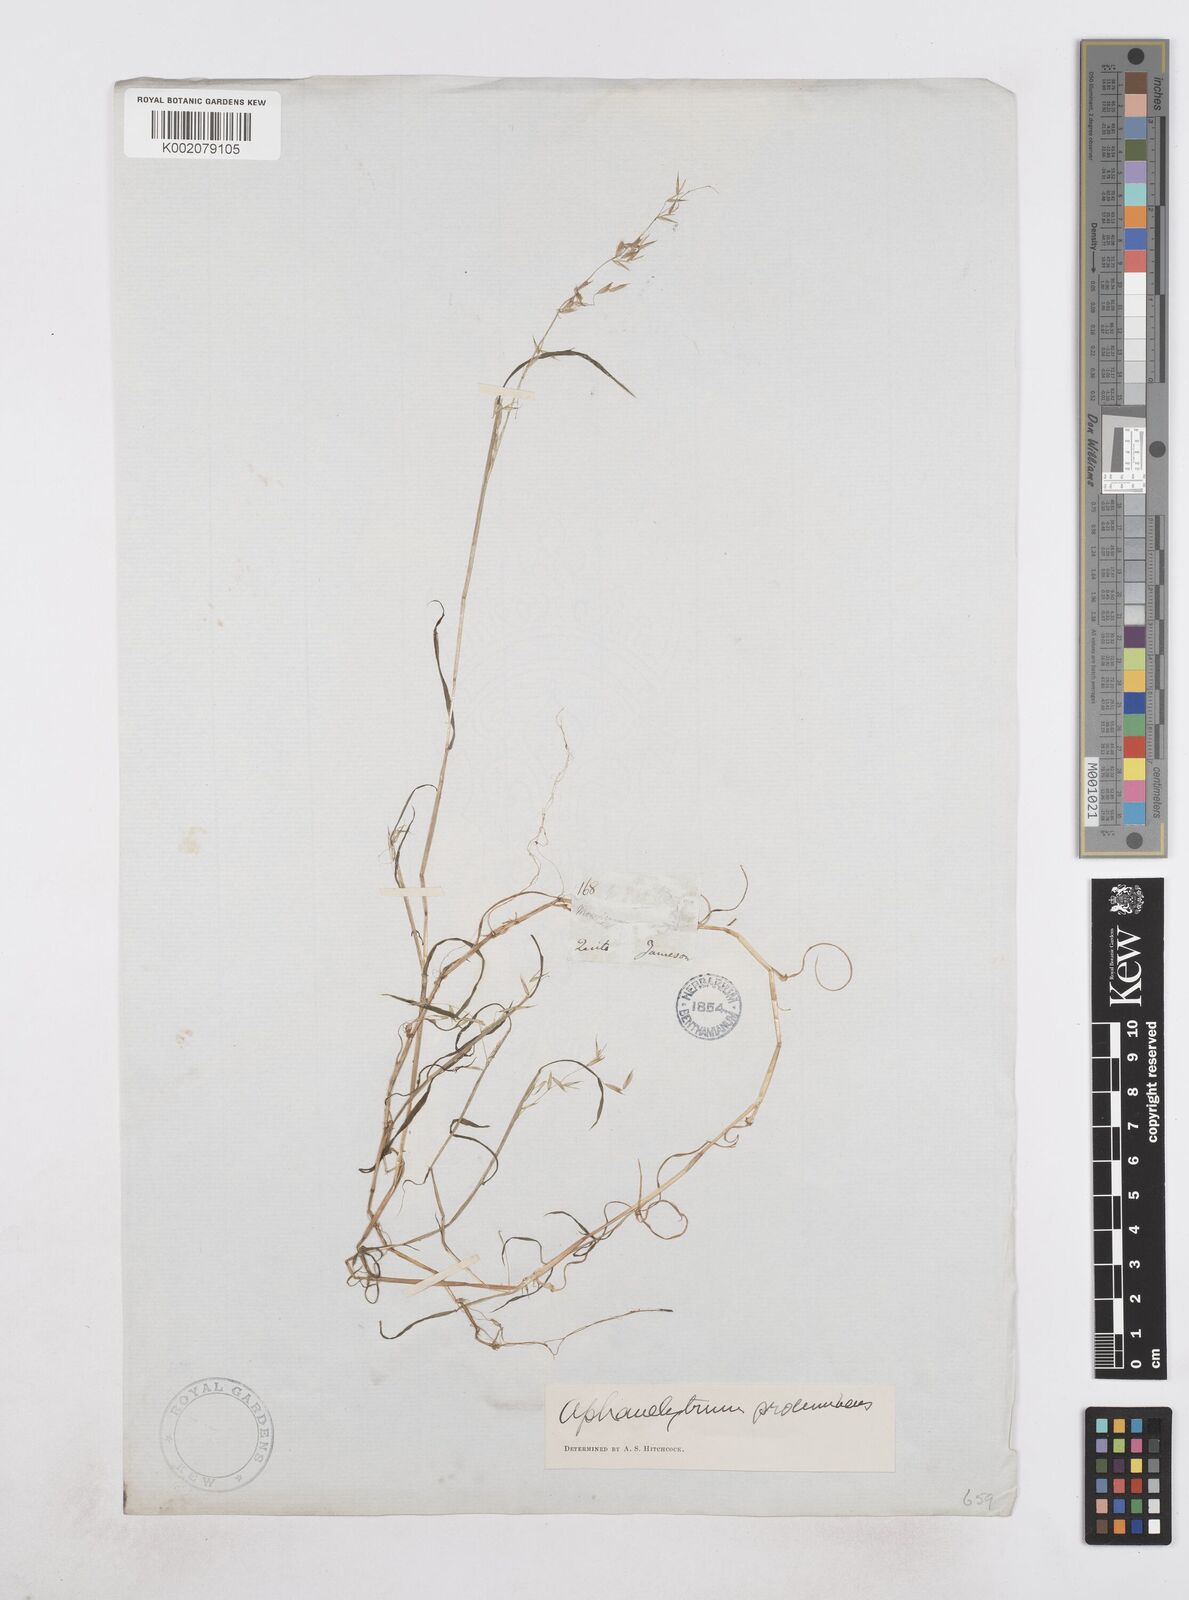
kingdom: Plantae
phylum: Tracheophyta
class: Liliopsida
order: Poales
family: Poaceae
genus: Poa
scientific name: Poa hitchcockiana
